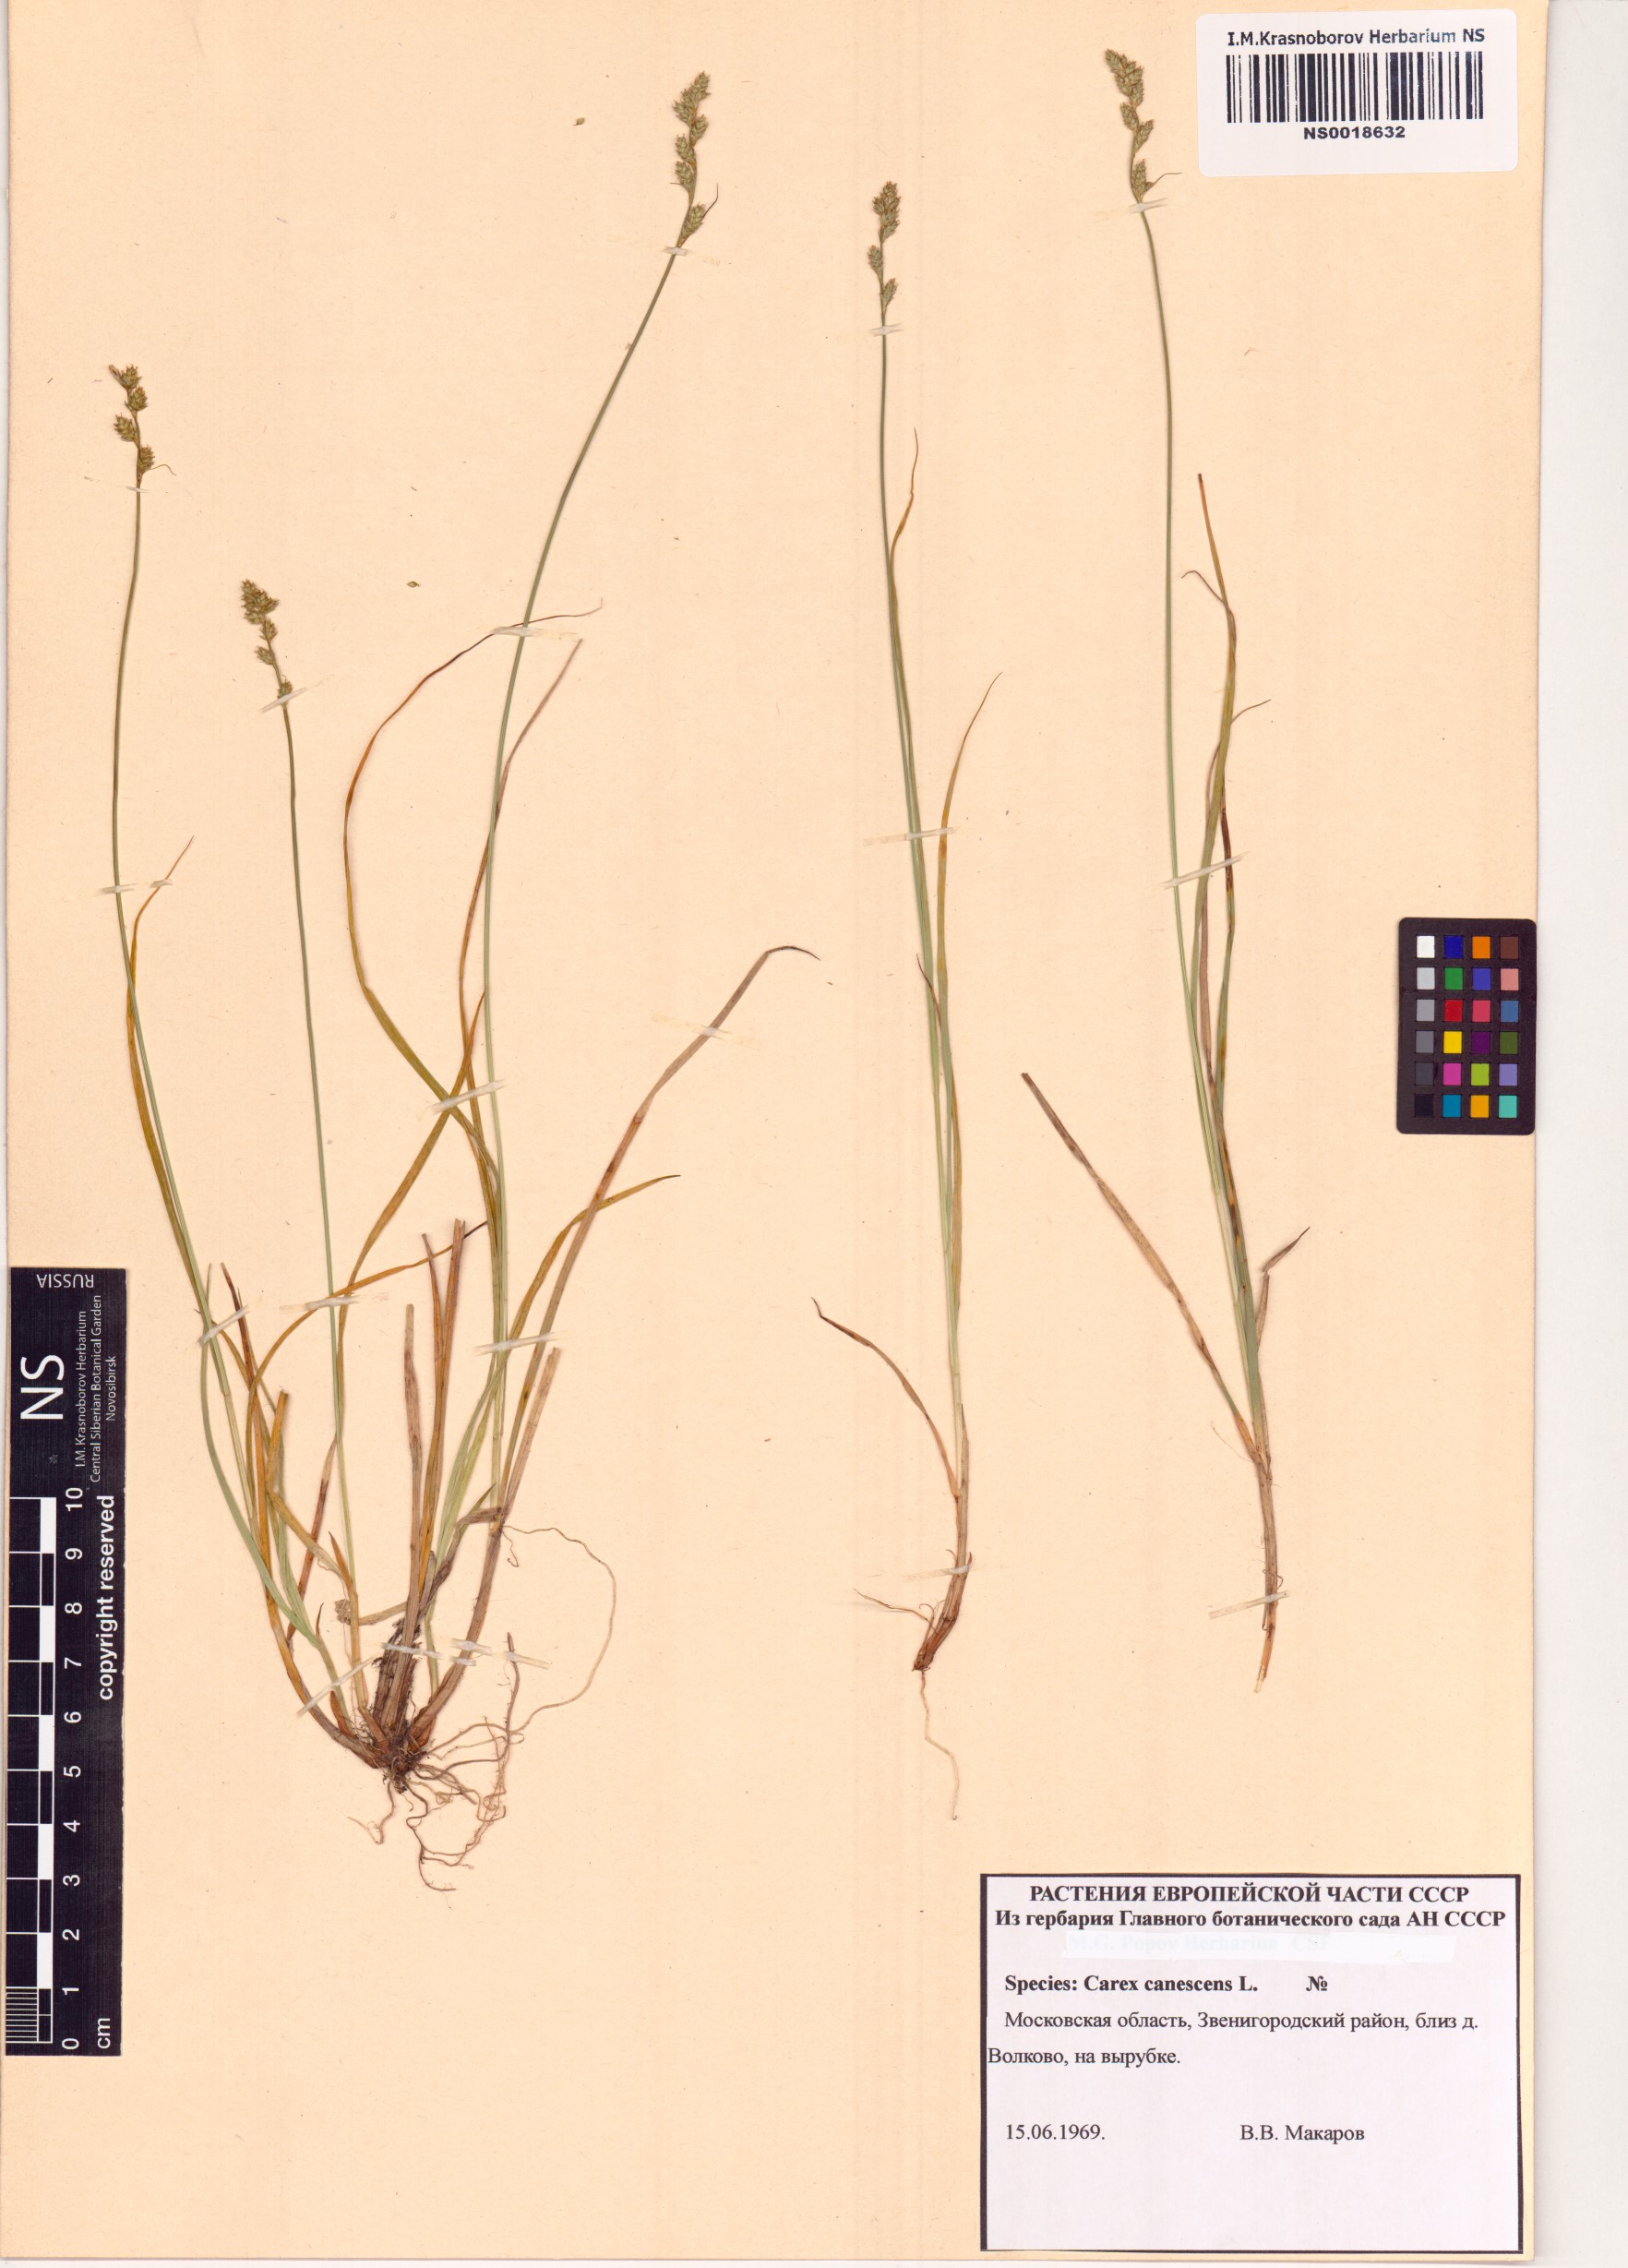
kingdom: Plantae
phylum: Tracheophyta
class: Liliopsida
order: Poales
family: Cyperaceae
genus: Carex
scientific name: Carex canescens
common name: White sedge
